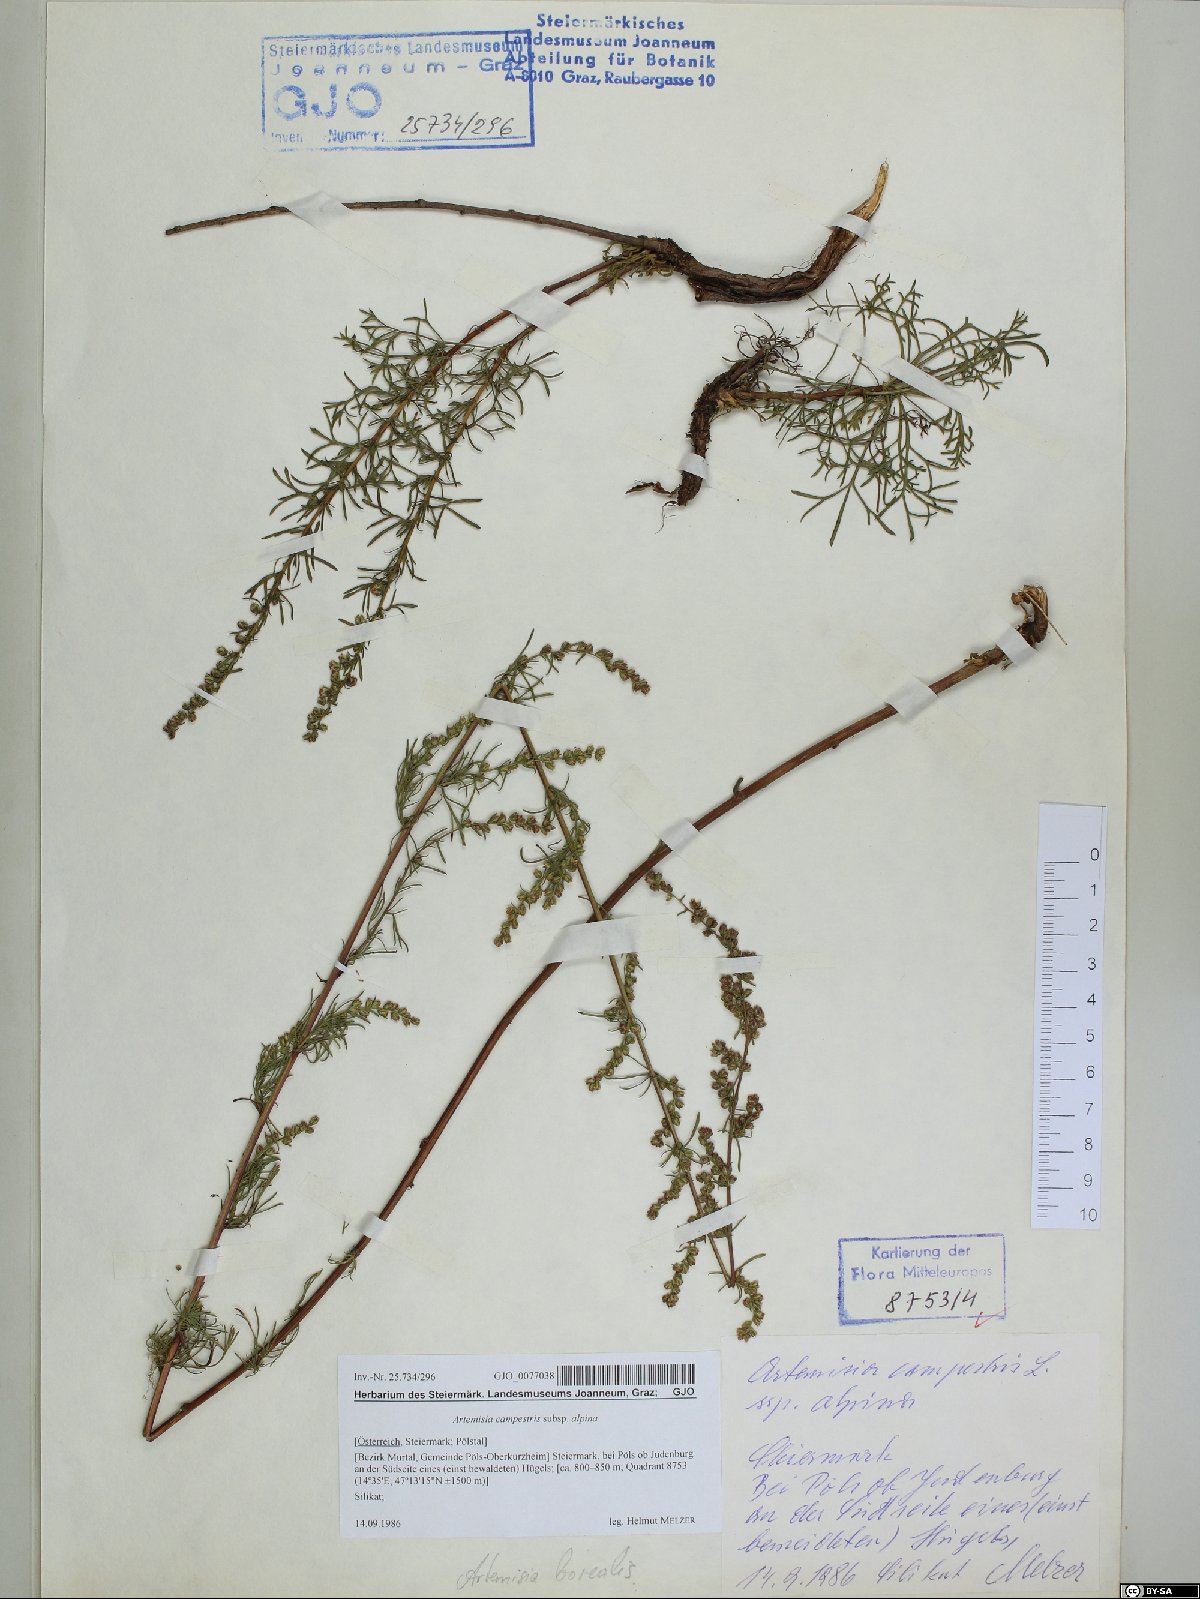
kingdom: Plantae
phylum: Tracheophyta
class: Magnoliopsida
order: Asterales
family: Asteraceae
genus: Artemisia
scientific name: Artemisia campestris
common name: Field wormwood
